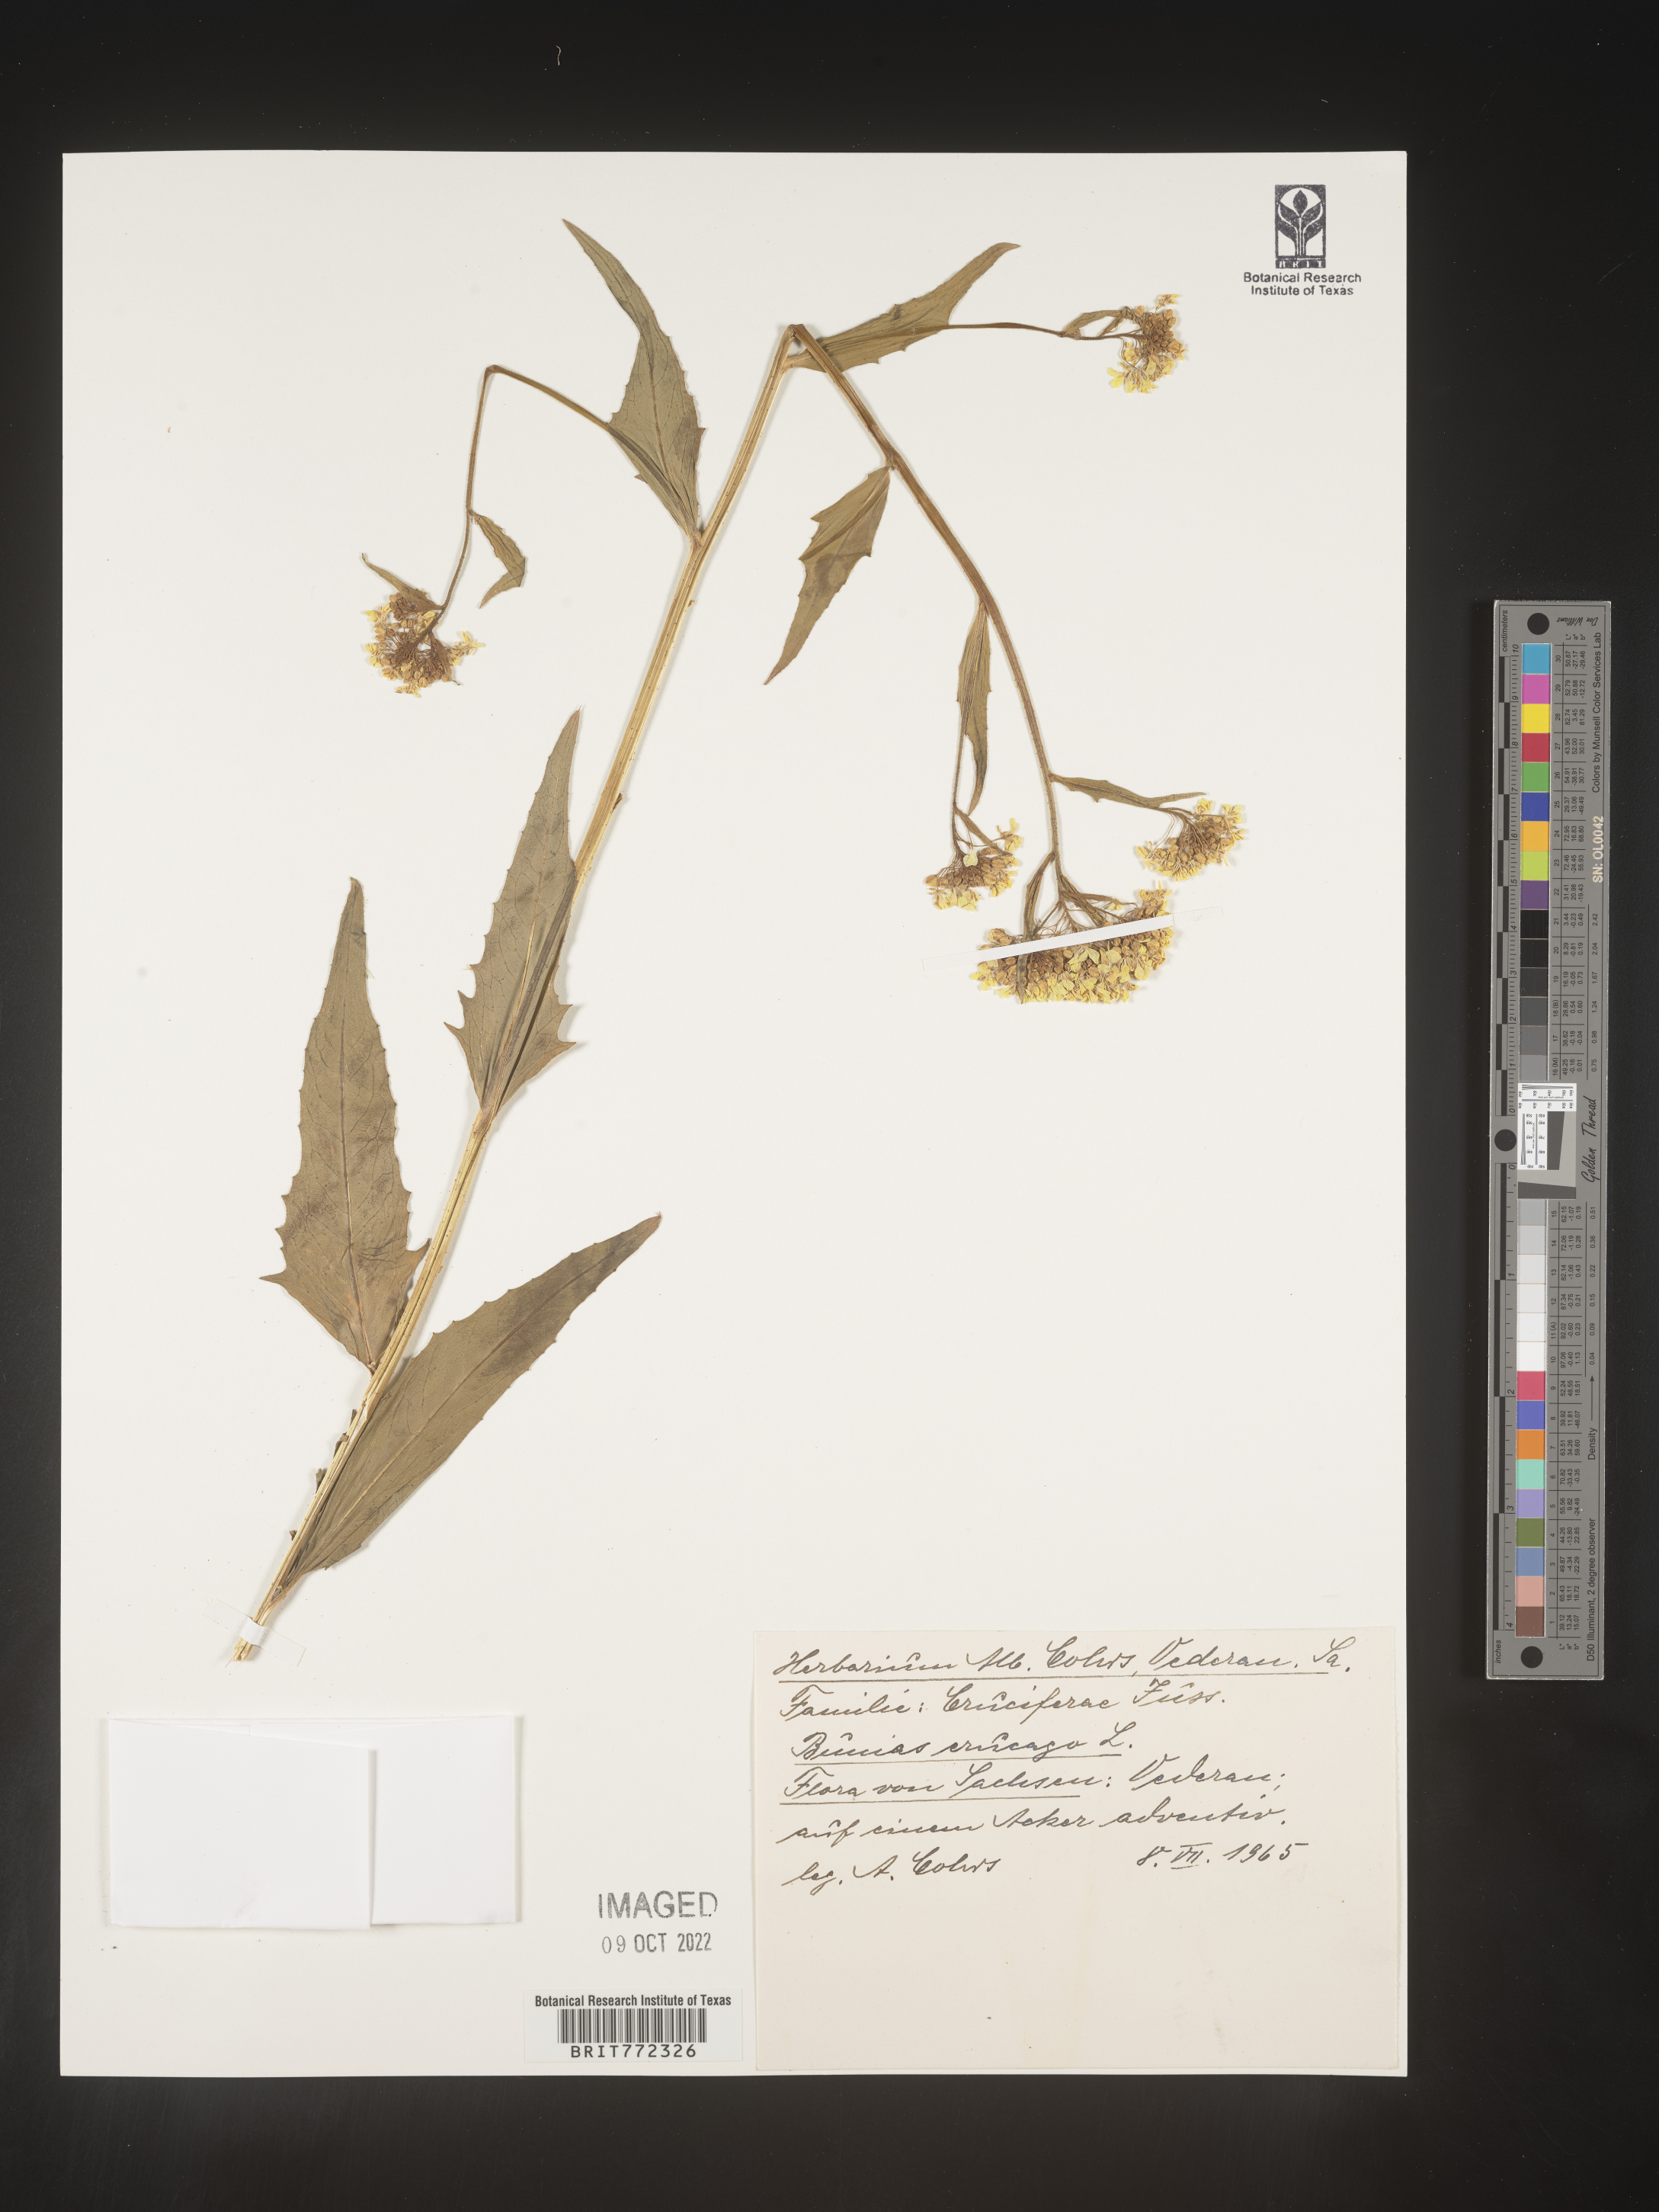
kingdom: Plantae
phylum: Tracheophyta
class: Magnoliopsida
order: Brassicales
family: Brassicaceae
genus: Bunias
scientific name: Bunias
